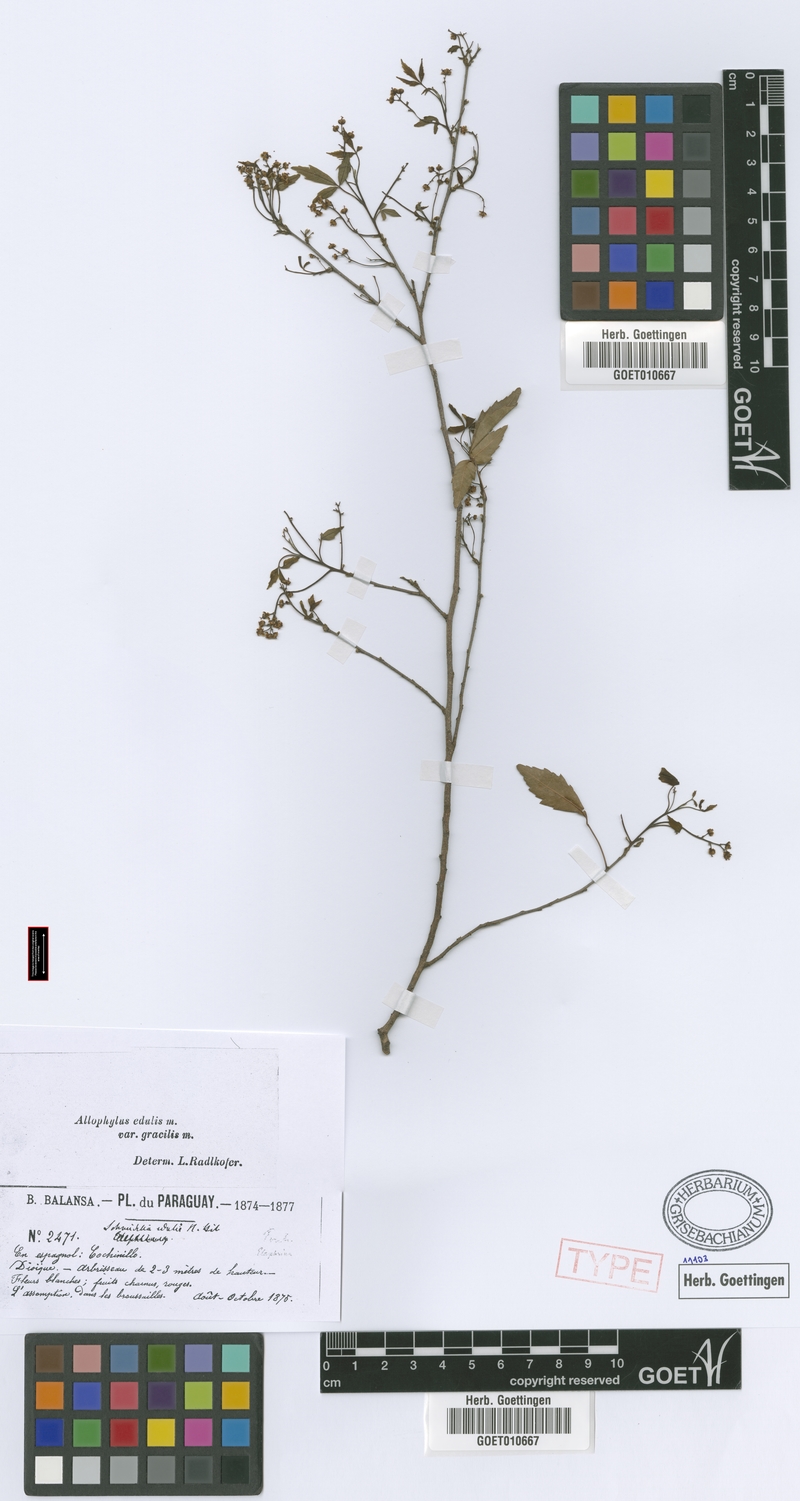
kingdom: Plantae
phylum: Tracheophyta
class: Magnoliopsida
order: Sapindales
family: Sapindaceae
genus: Allophylus
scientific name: Allophylus edulis
